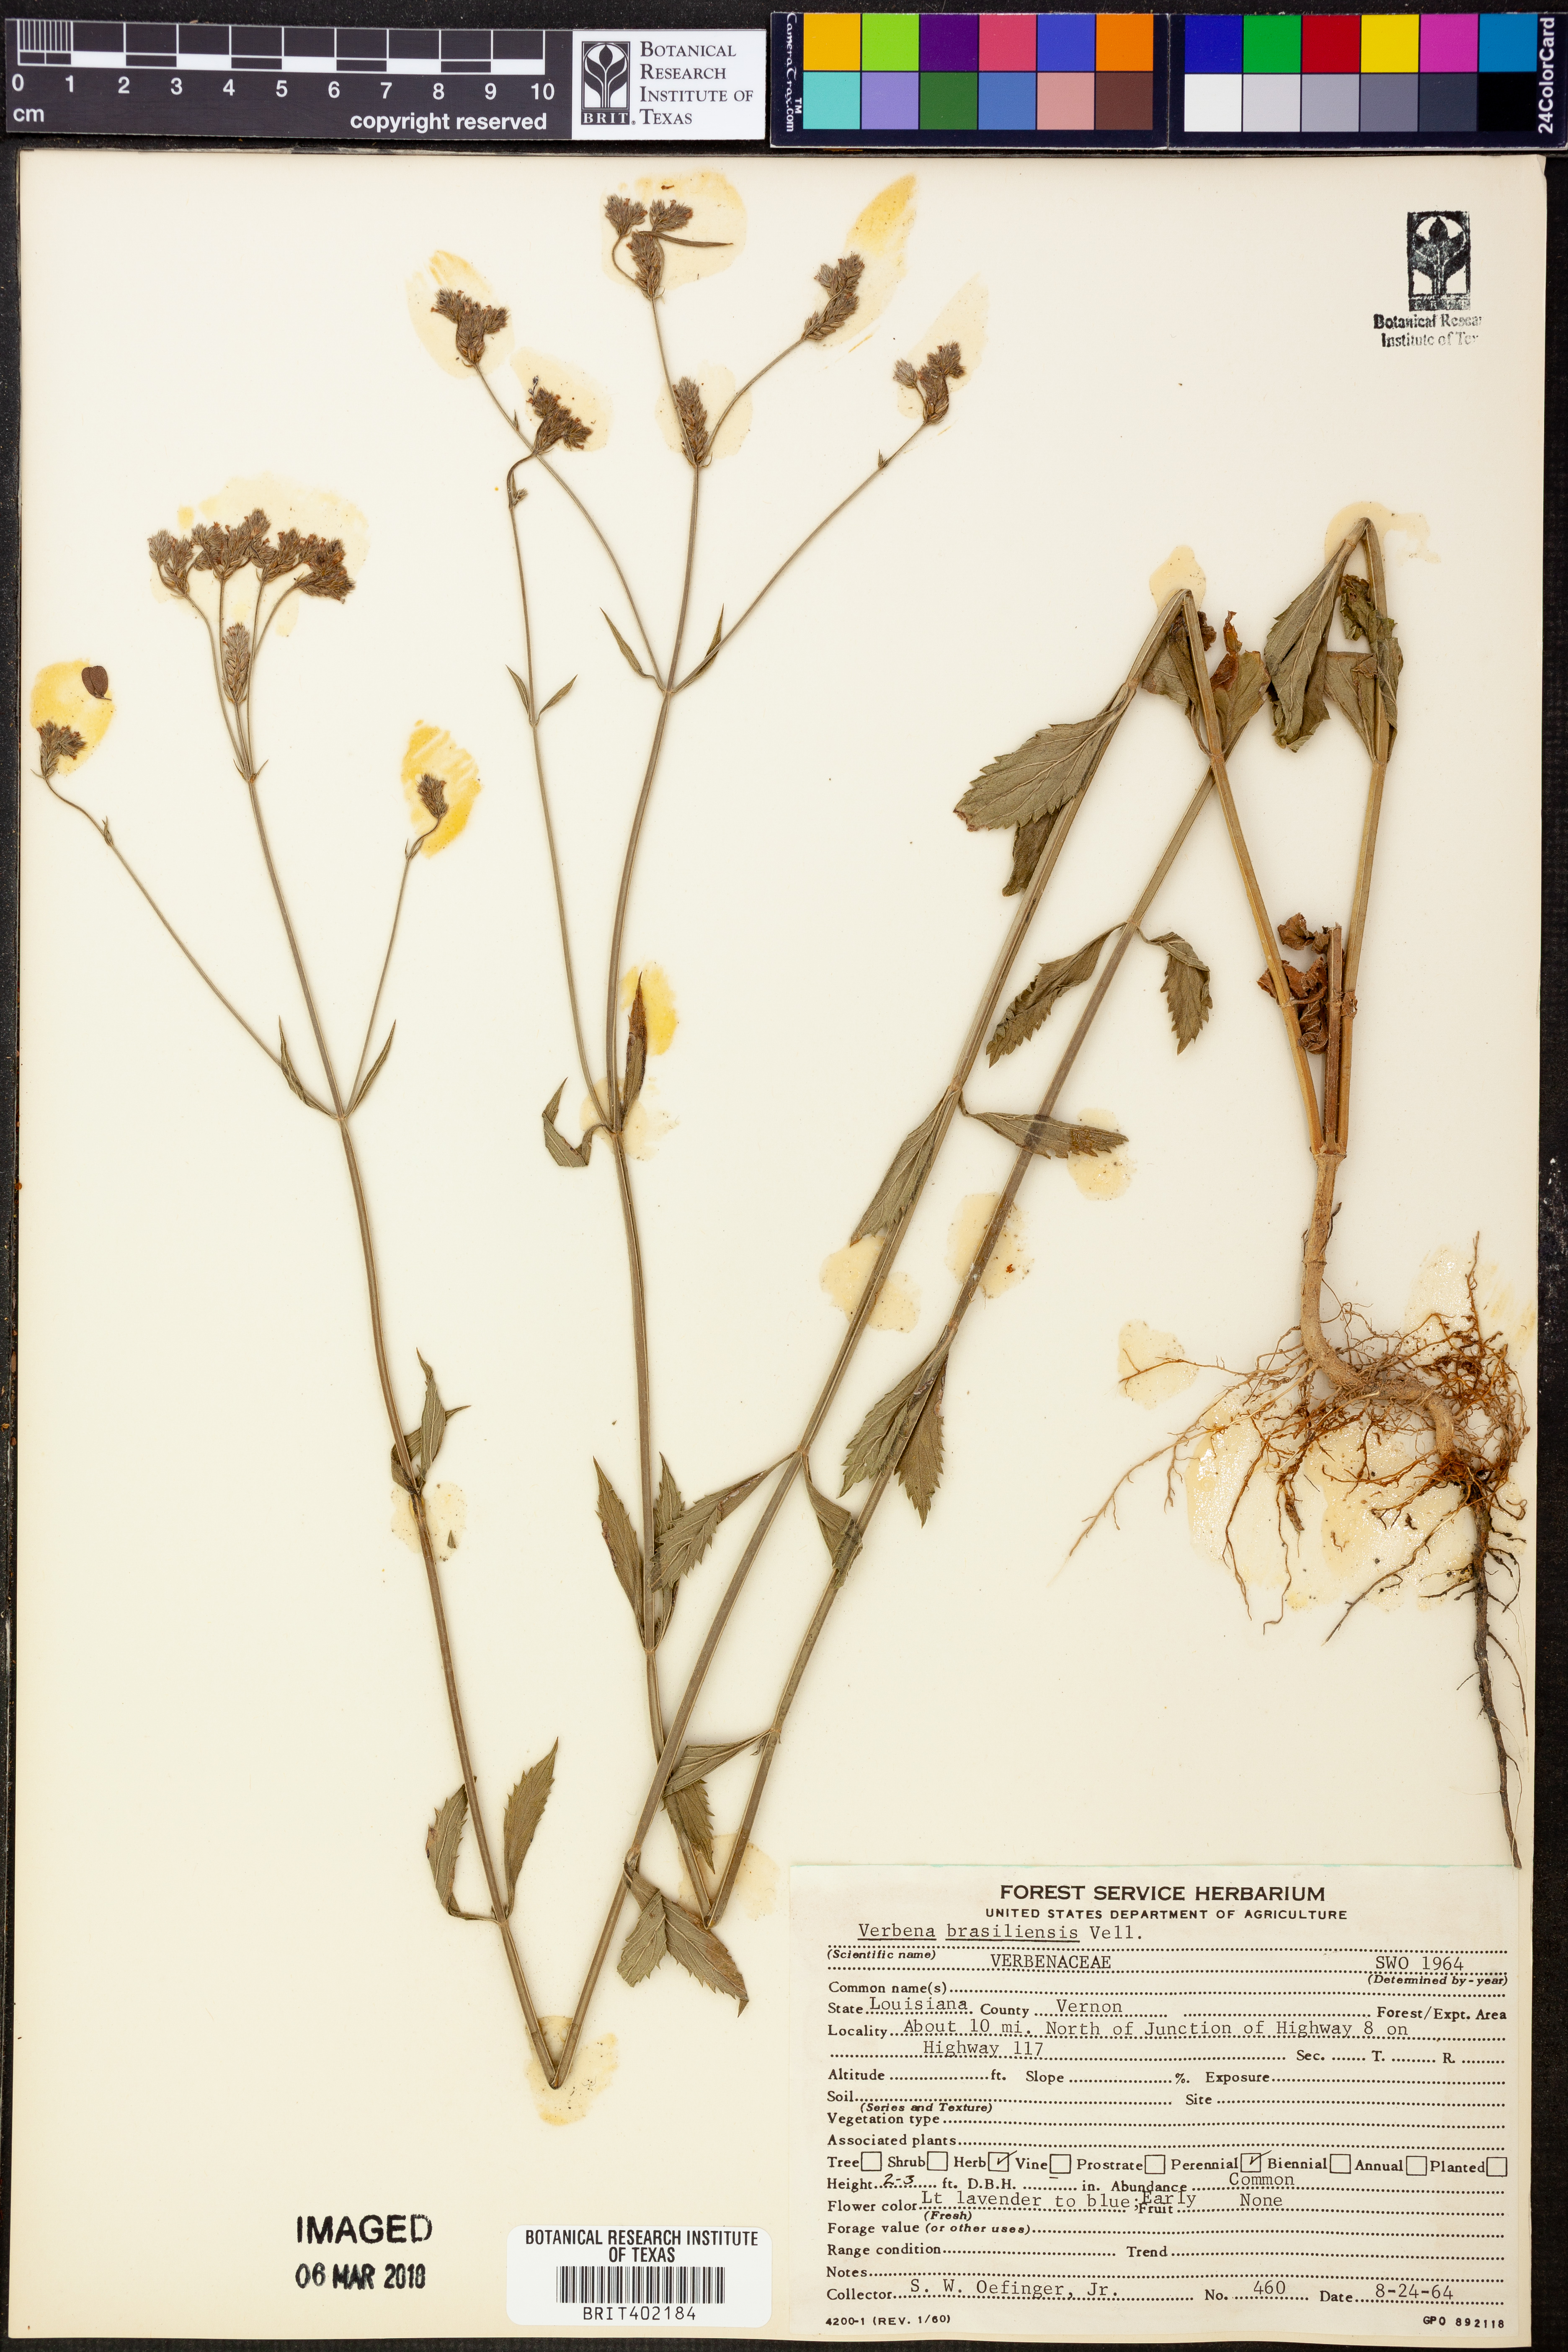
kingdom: Plantae
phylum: Tracheophyta
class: Magnoliopsida
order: Lamiales
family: Verbenaceae
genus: Verbena
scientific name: Verbena brasiliensis
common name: Brazilian vervain
